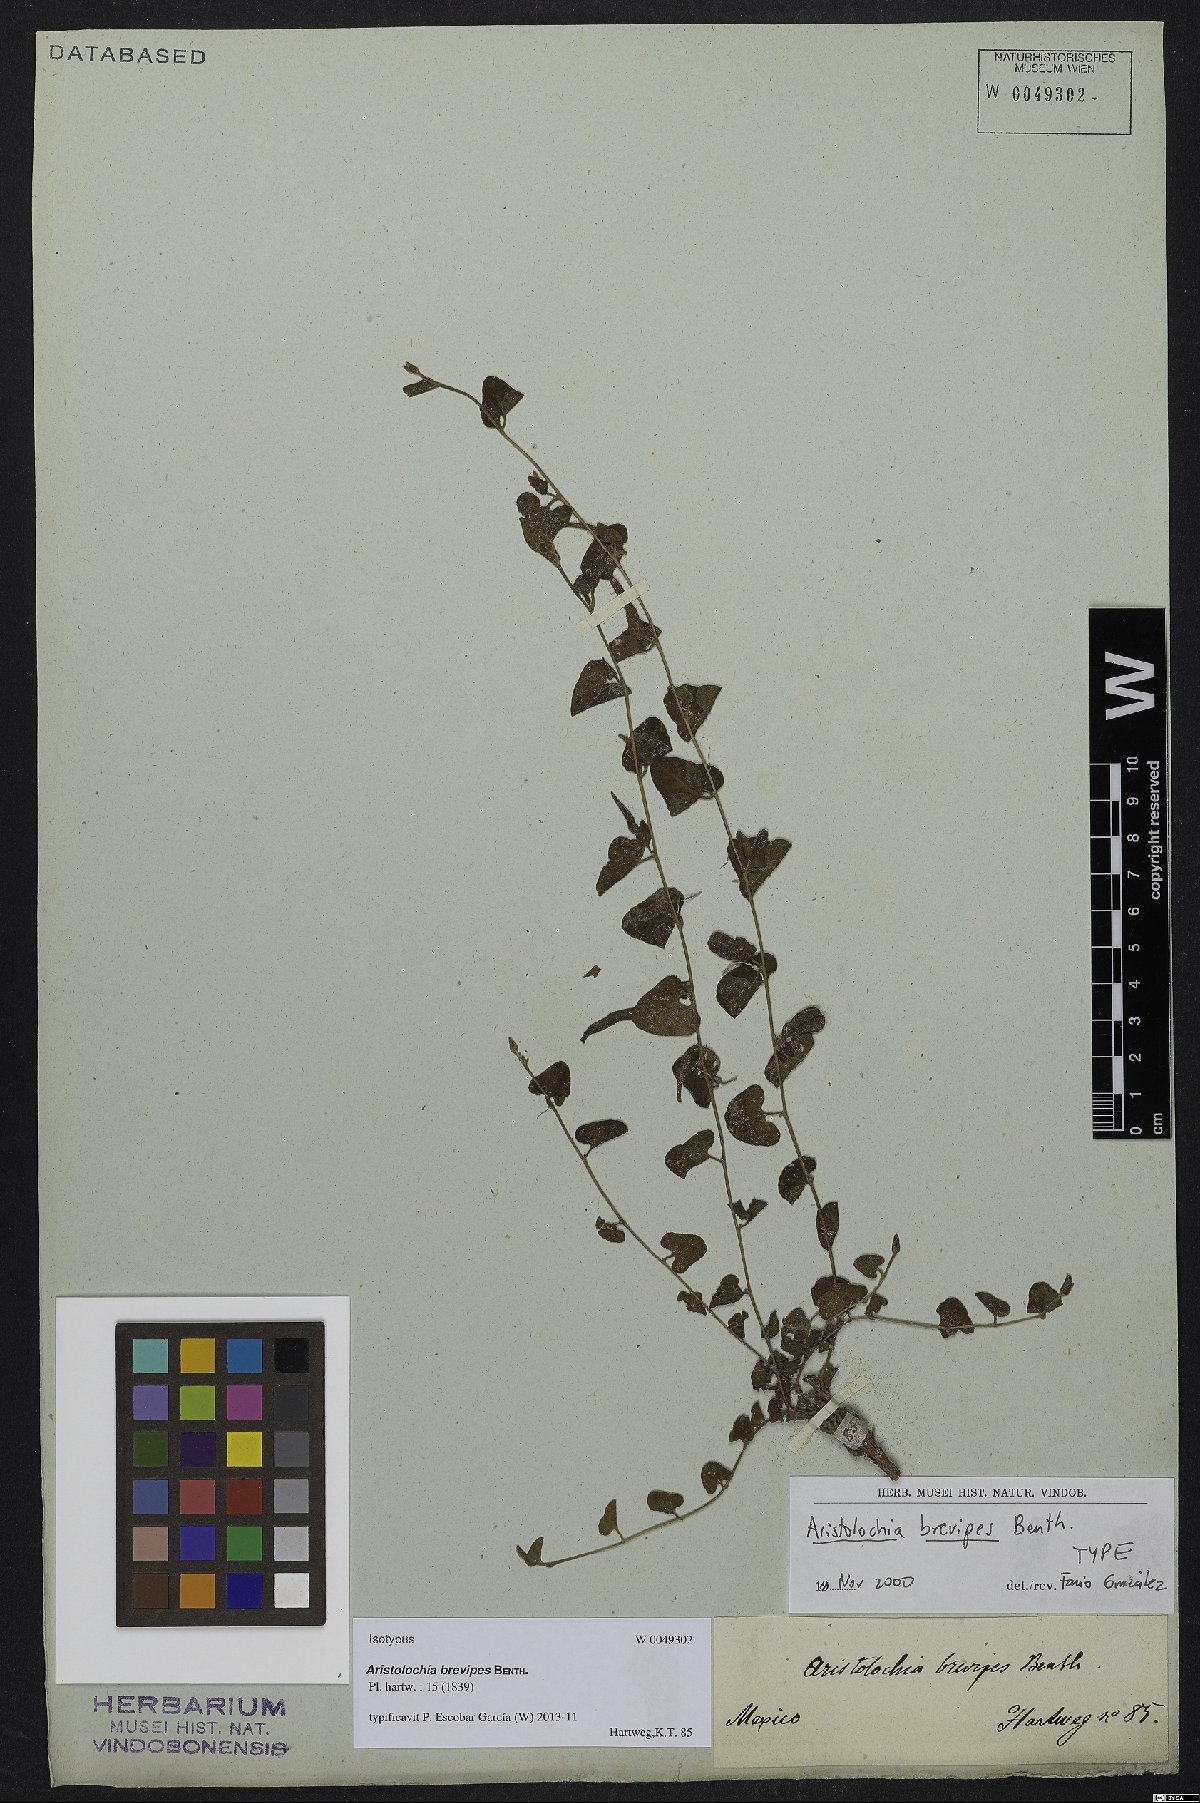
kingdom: Plantae
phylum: Tracheophyta
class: Magnoliopsida
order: Piperales
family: Aristolochiaceae
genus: Aristolochia
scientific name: Aristolochia brevipes
